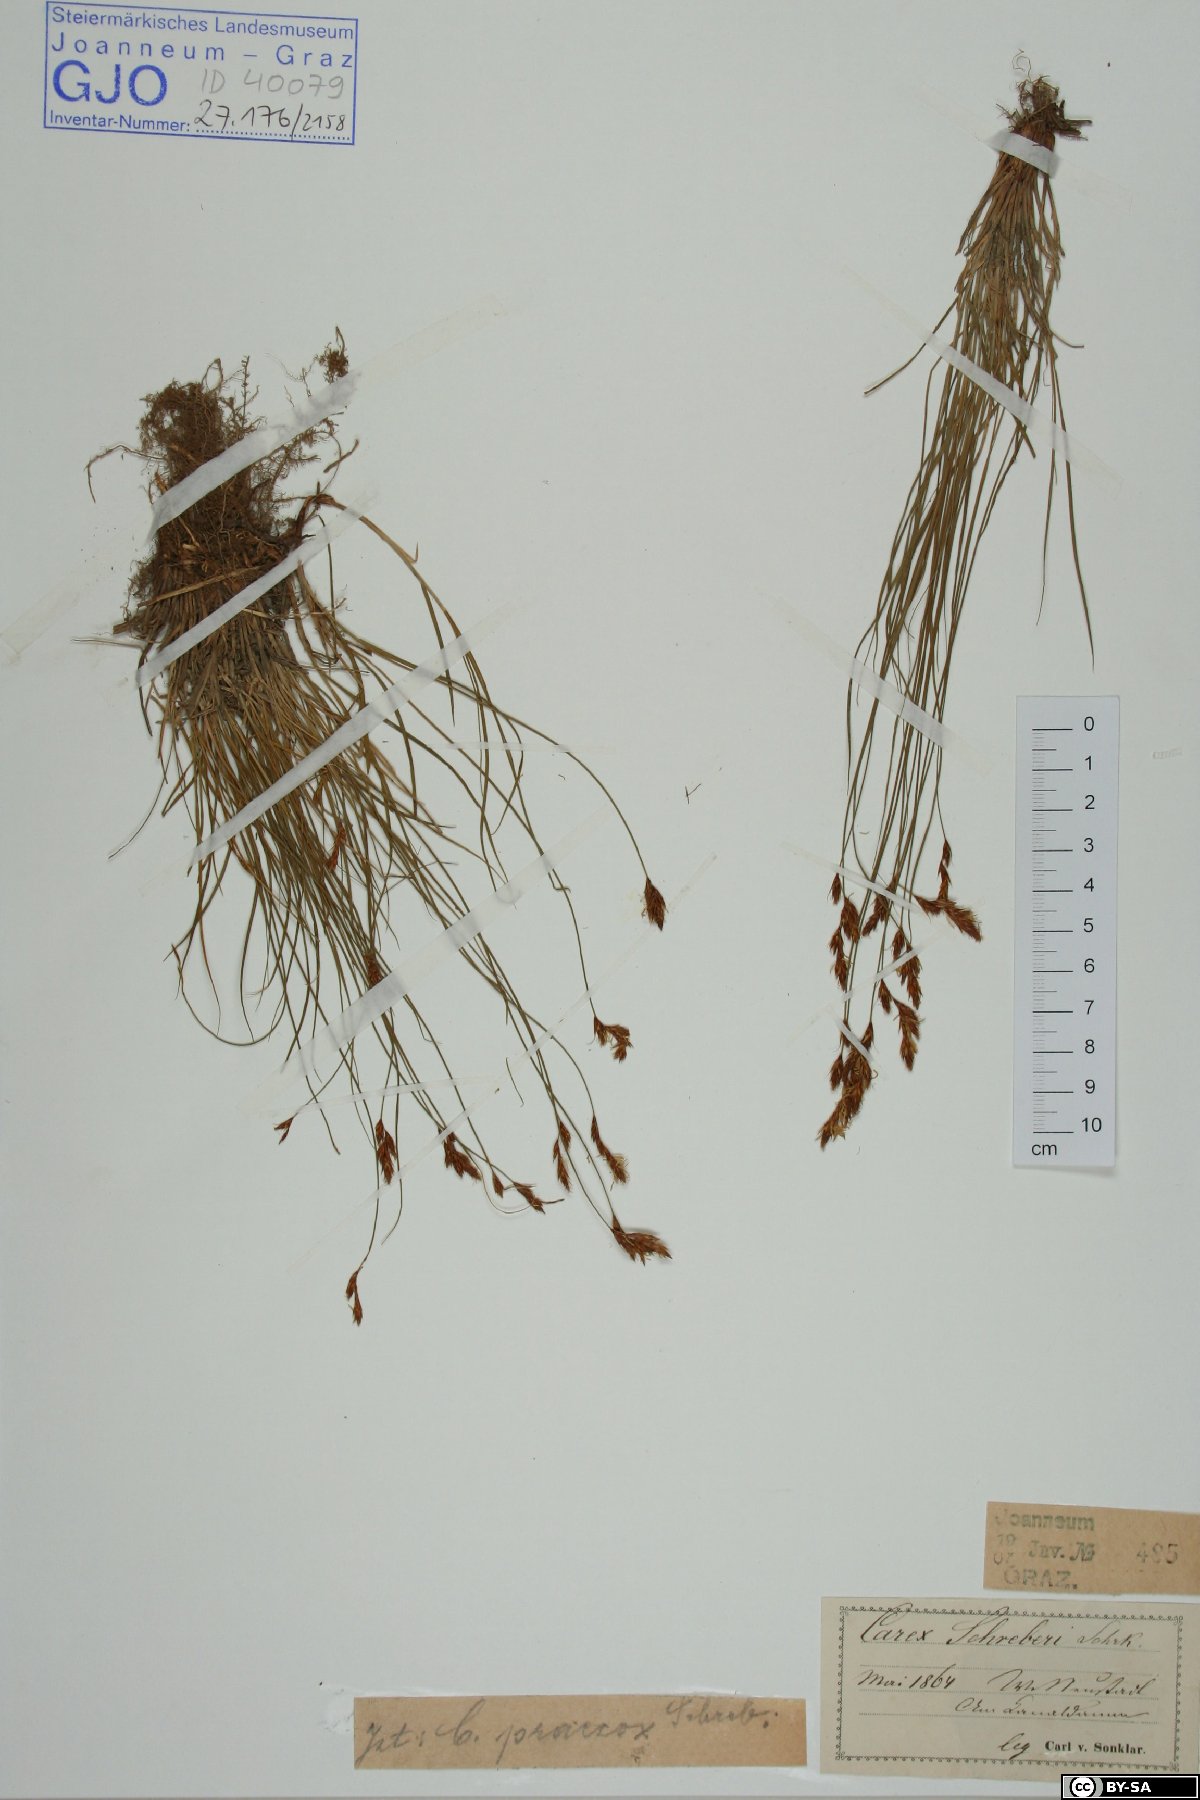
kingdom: Plantae
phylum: Tracheophyta
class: Liliopsida
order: Poales
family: Cyperaceae
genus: Carex
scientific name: Carex praecox
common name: Early sedge
